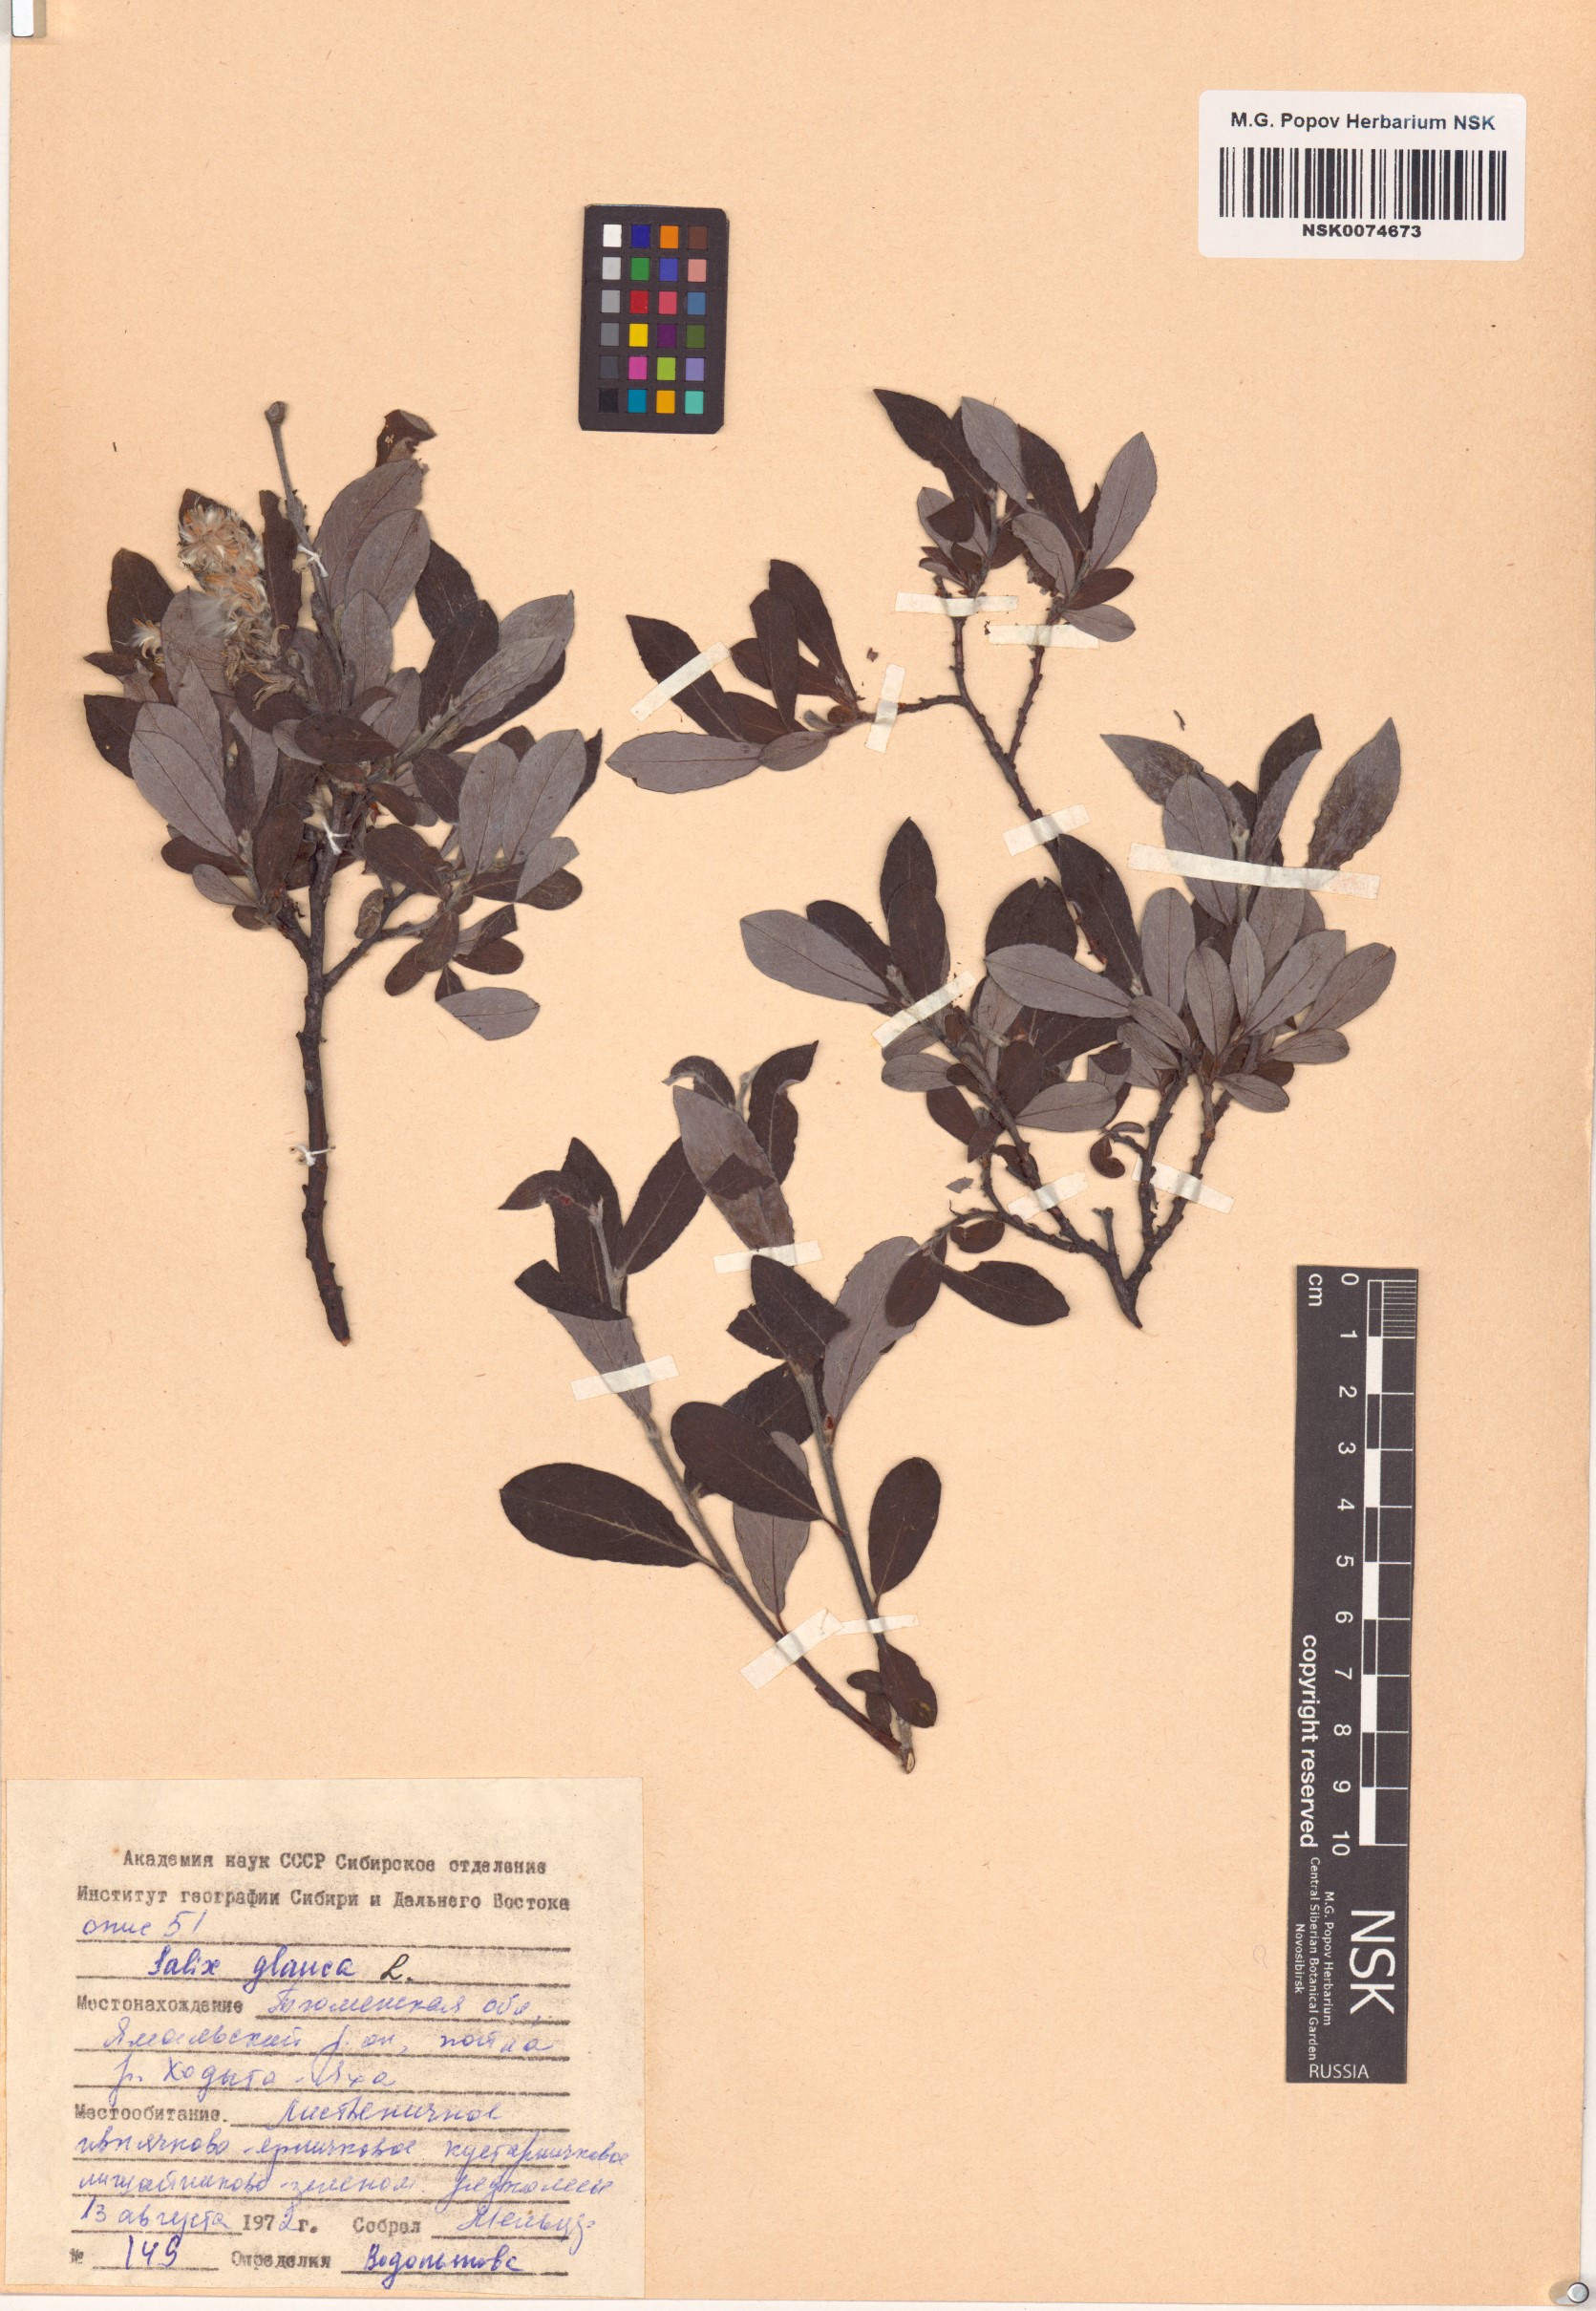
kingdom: Plantae
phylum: Tracheophyta
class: Magnoliopsida
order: Malpighiales
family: Salicaceae
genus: Salix
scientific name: Salix glauca
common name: Glaucous willow
